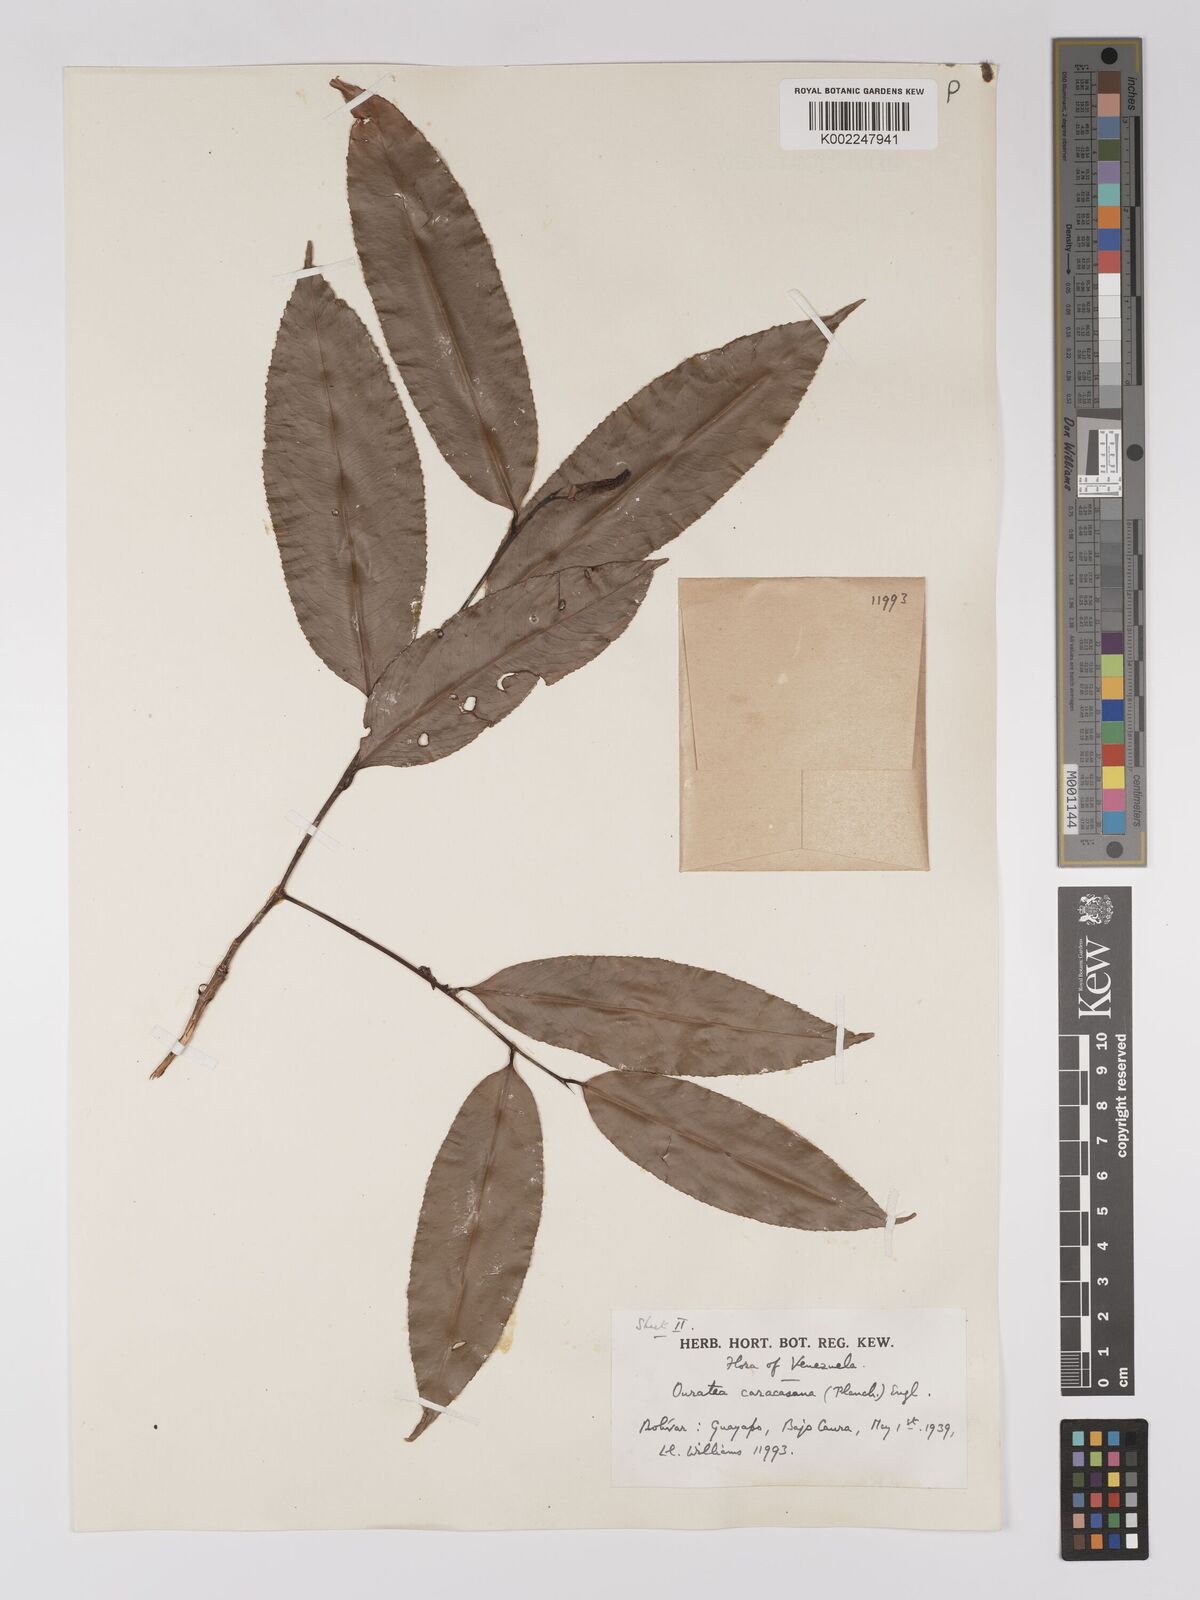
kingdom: Plantae
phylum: Tracheophyta
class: Magnoliopsida
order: Malpighiales
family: Ochnaceae
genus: Ouratea
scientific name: Ouratea caracasana
